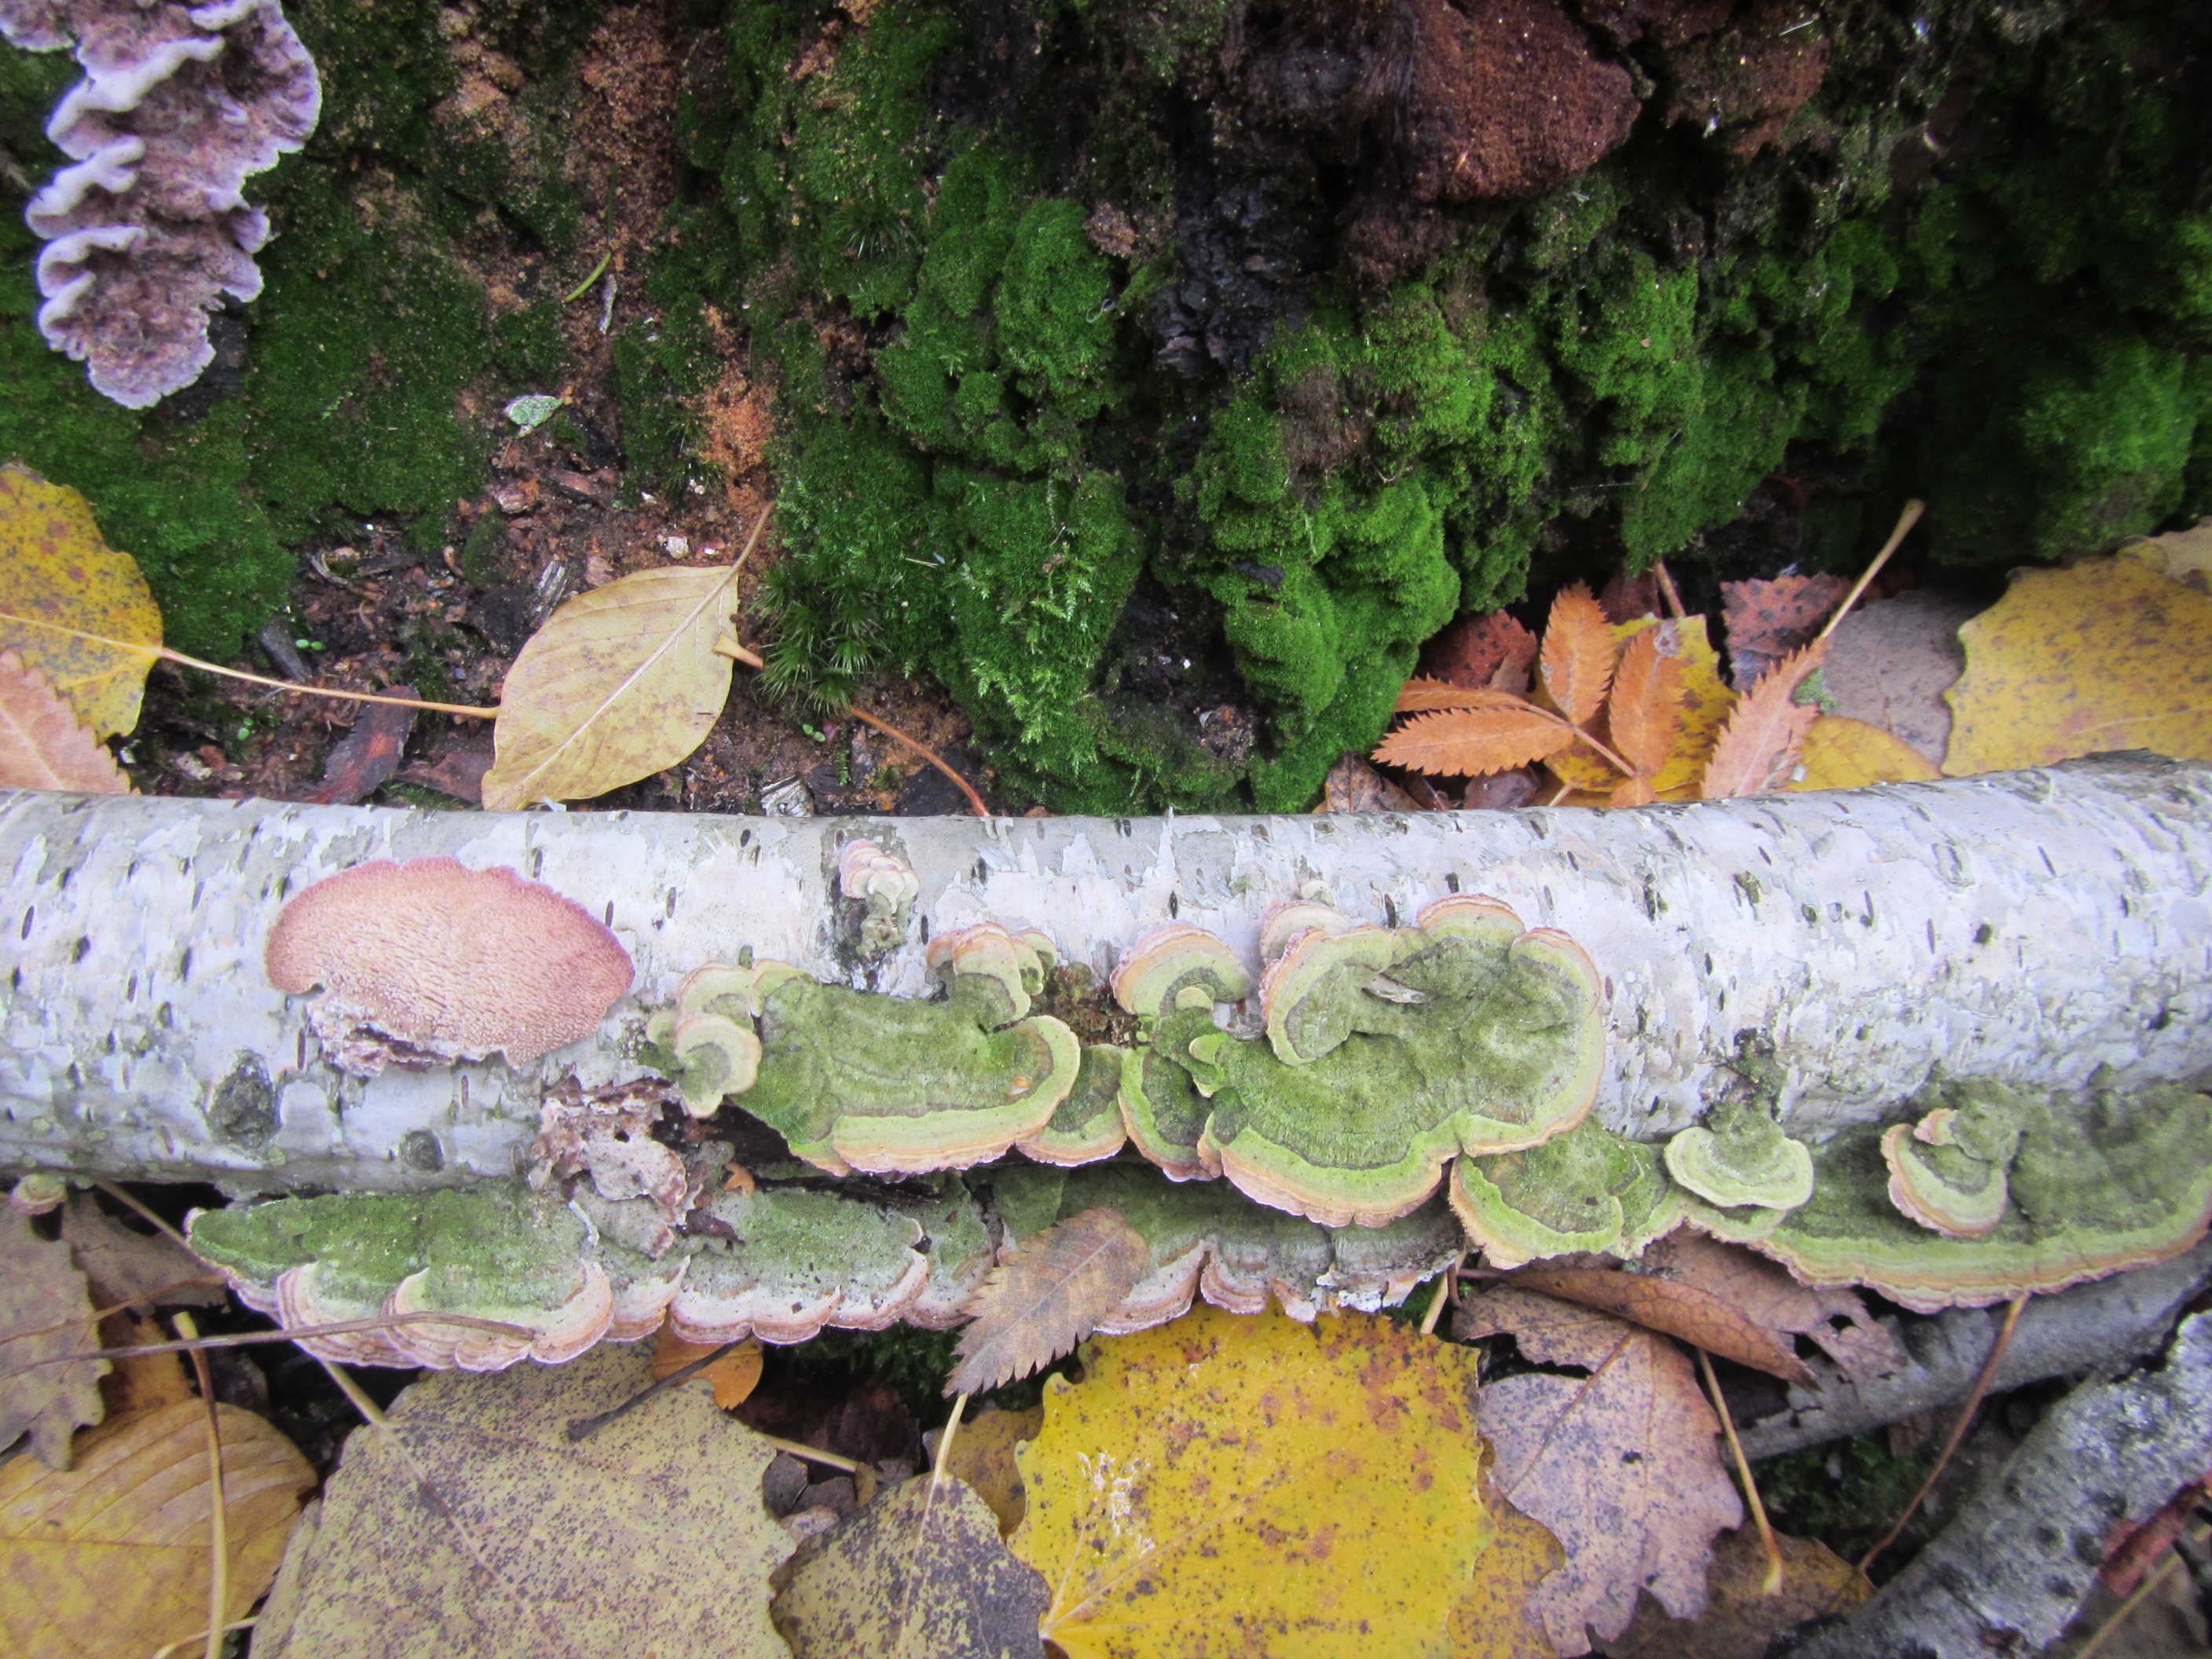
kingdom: Fungi
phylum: Basidiomycota
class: Agaricomycetes
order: Hymenochaetales
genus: Trichaptum
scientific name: Trichaptum biforme
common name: Violet-toothed polypore
